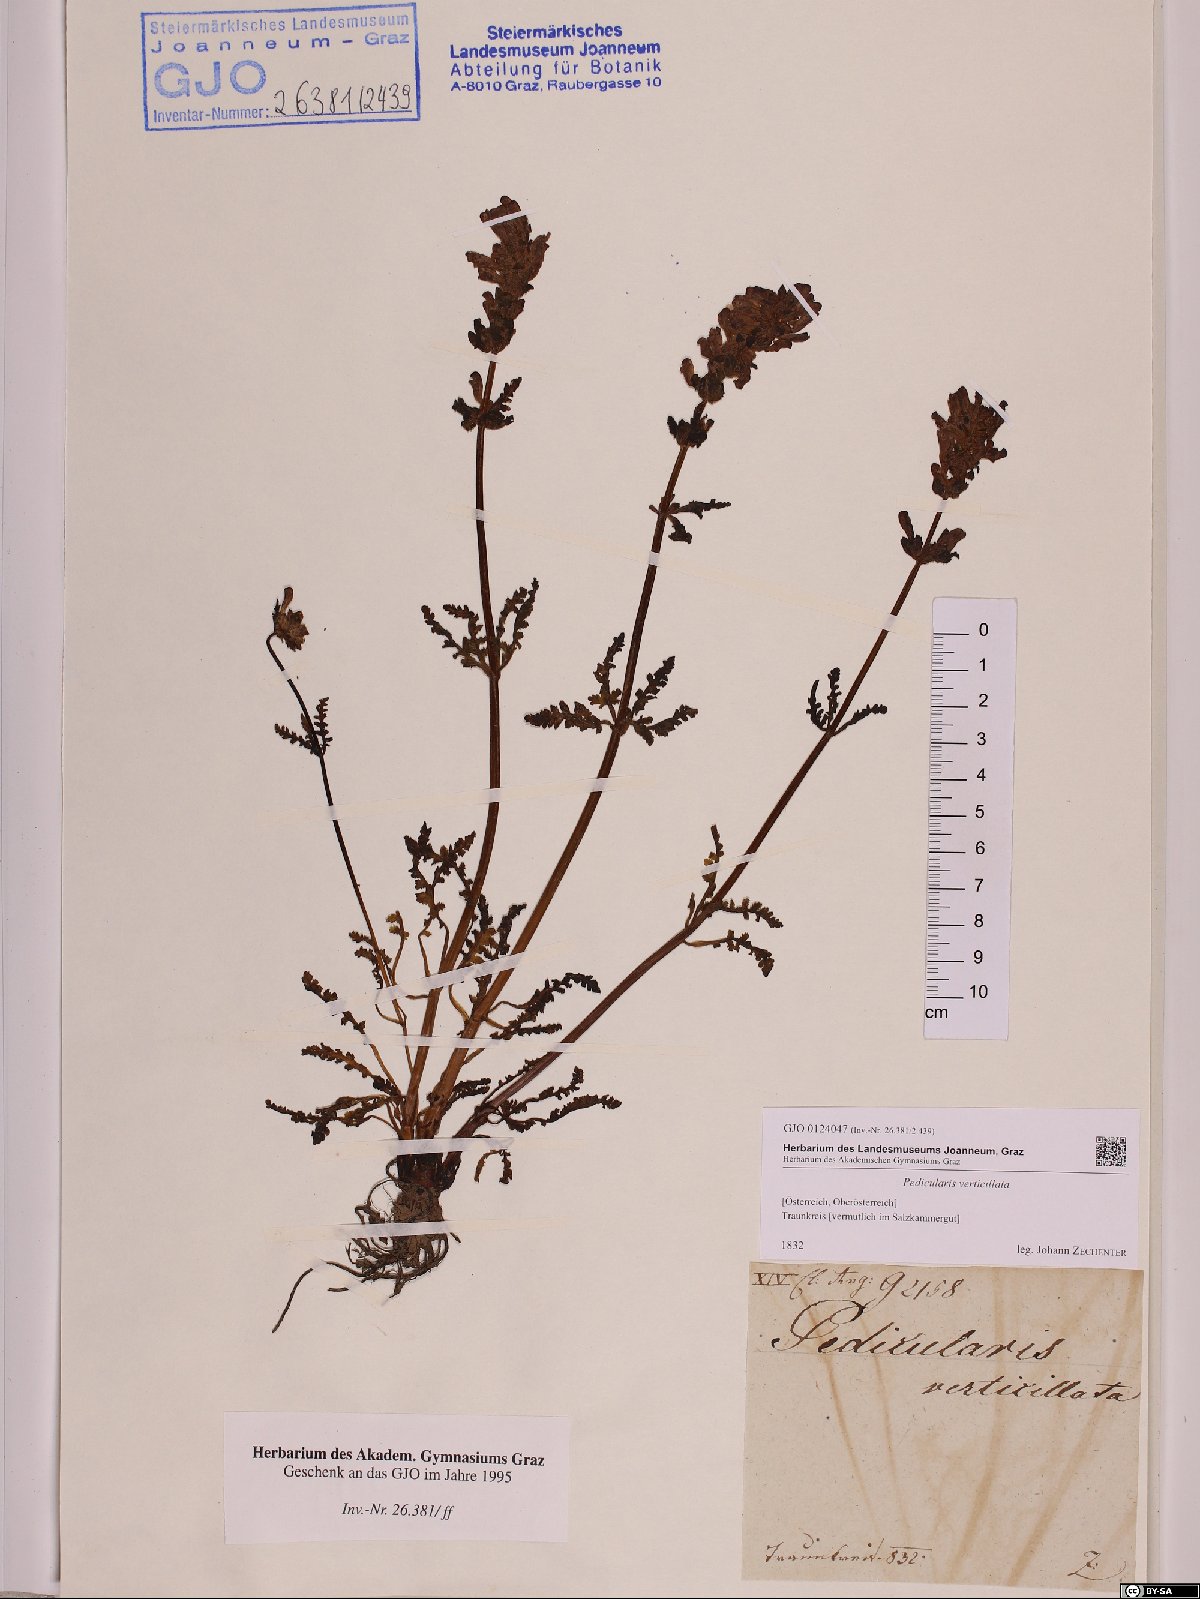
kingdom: Plantae
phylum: Tracheophyta
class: Magnoliopsida
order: Lamiales
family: Orobanchaceae
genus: Pedicularis
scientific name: Pedicularis verticillata
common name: Whorled lousewort
